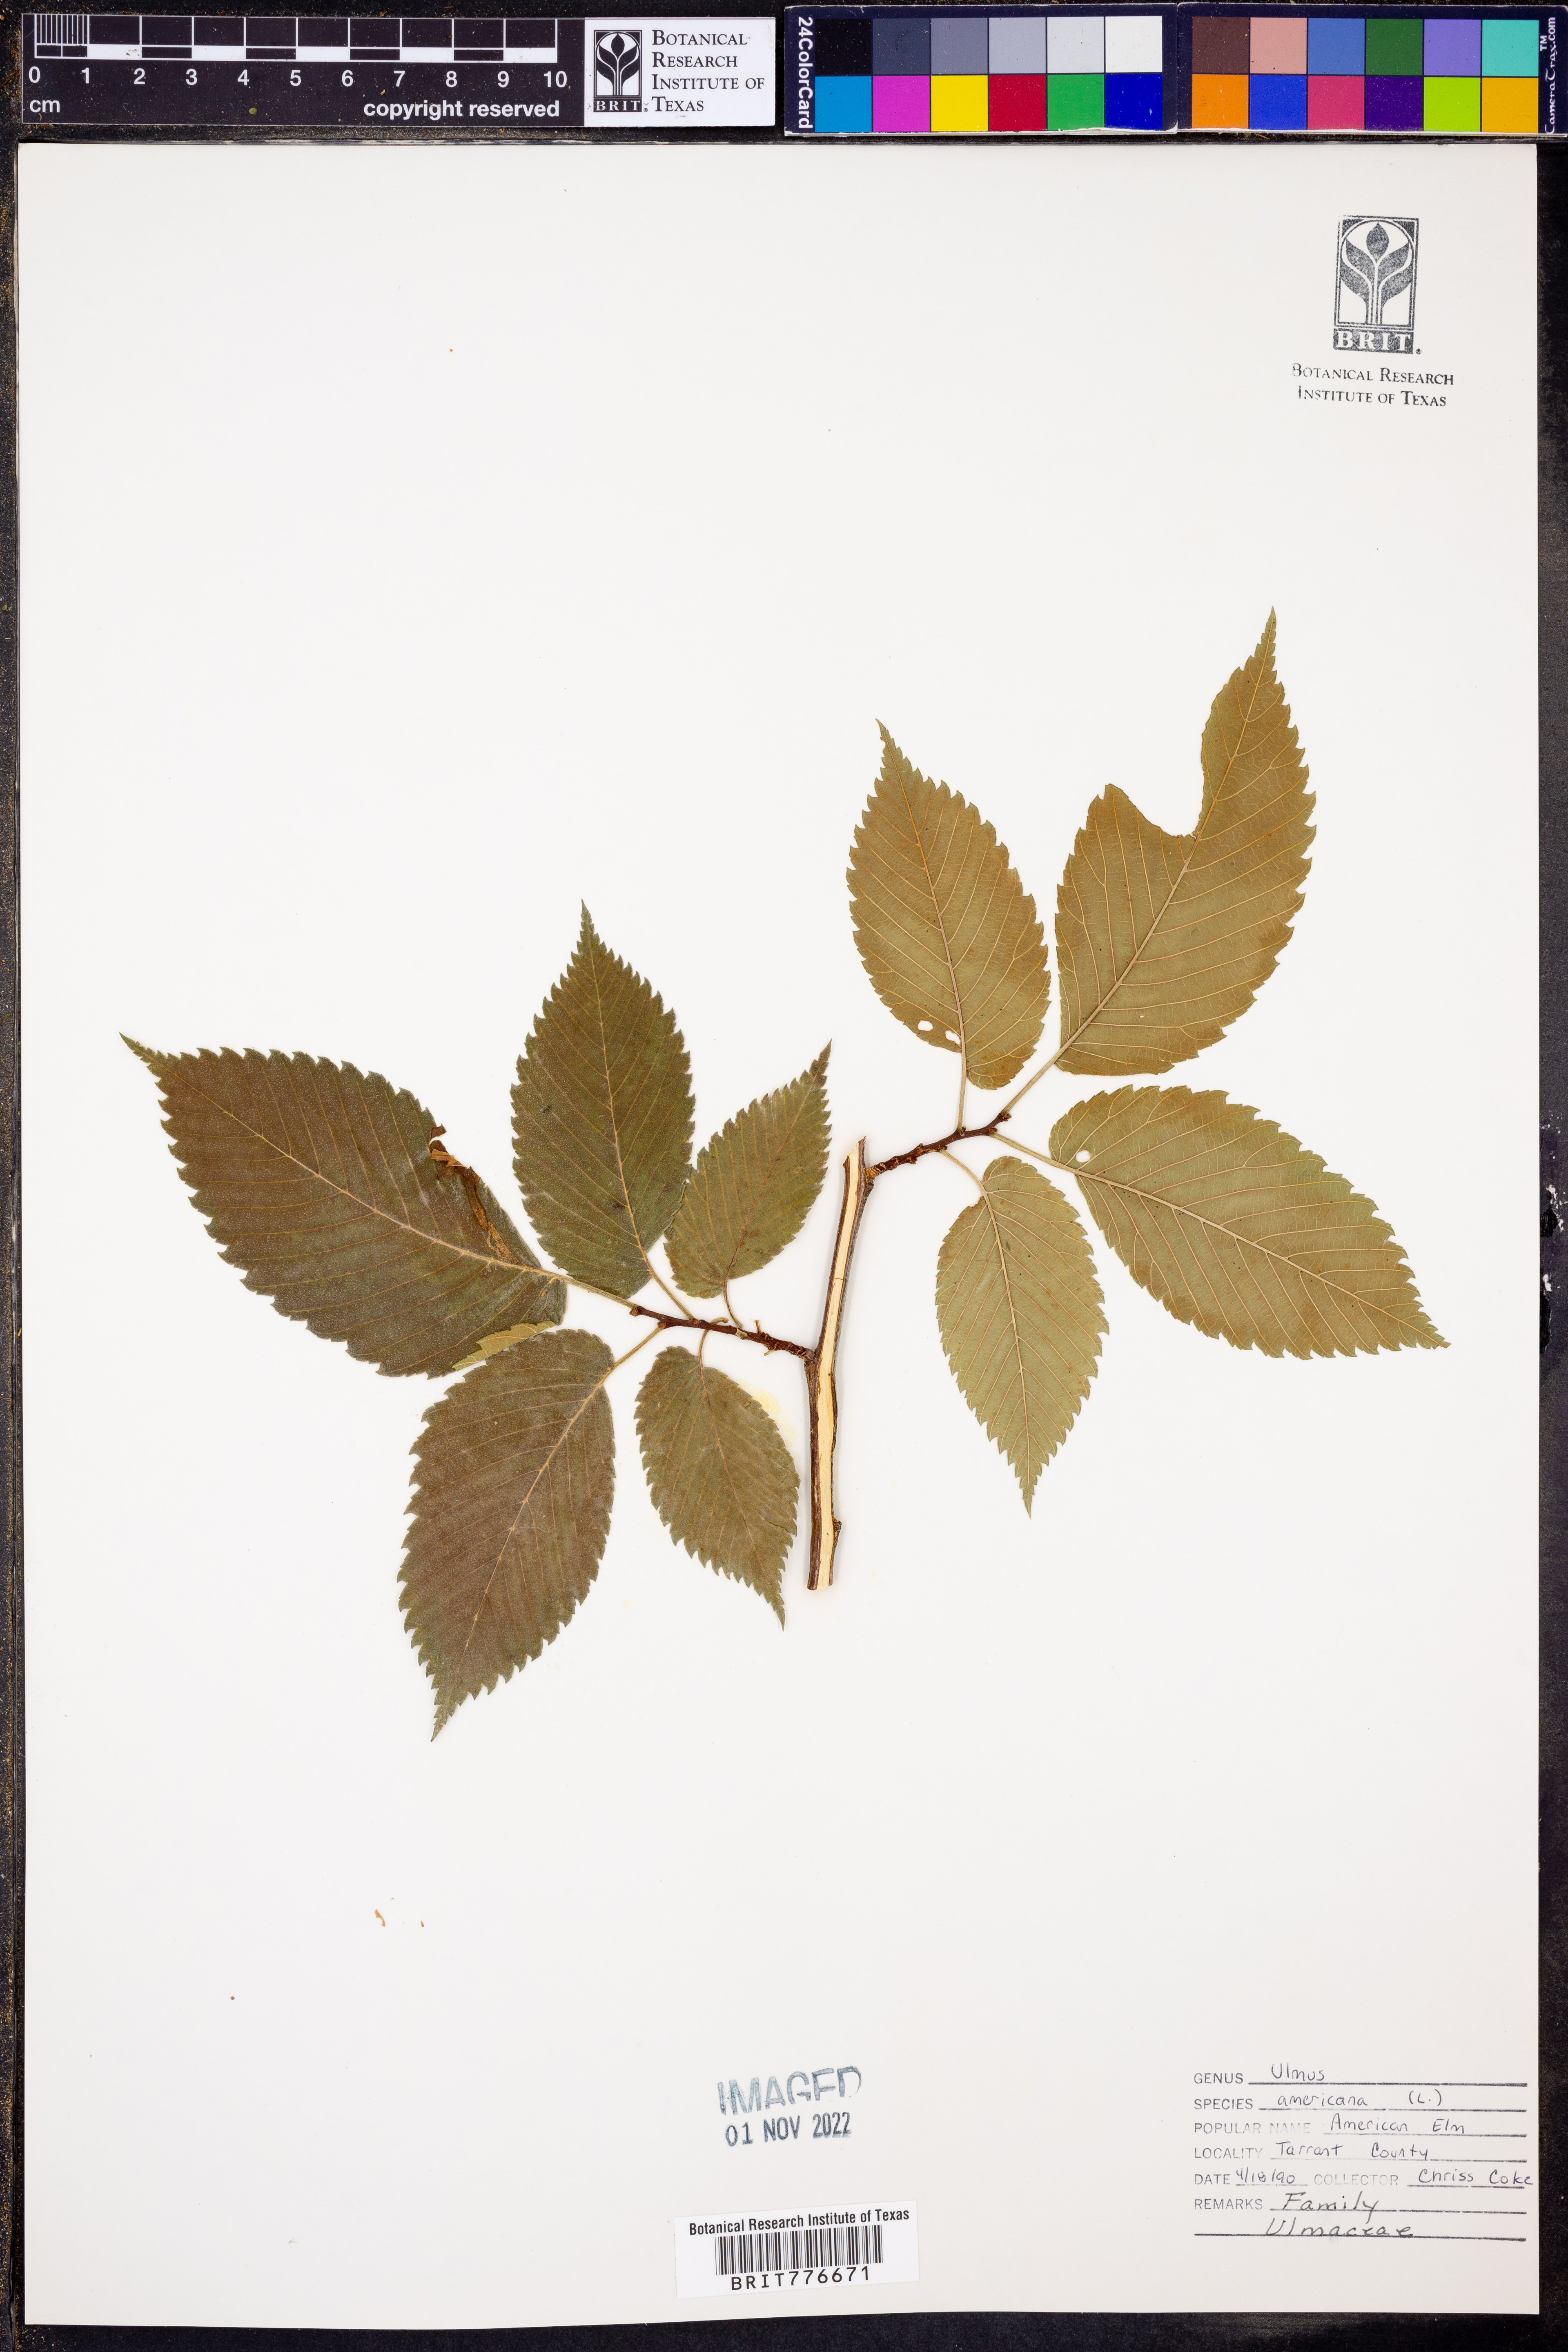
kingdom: Plantae
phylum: Tracheophyta
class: Magnoliopsida
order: Rosales
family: Ulmaceae
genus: Ulmus
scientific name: Ulmus americana
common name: American elm
